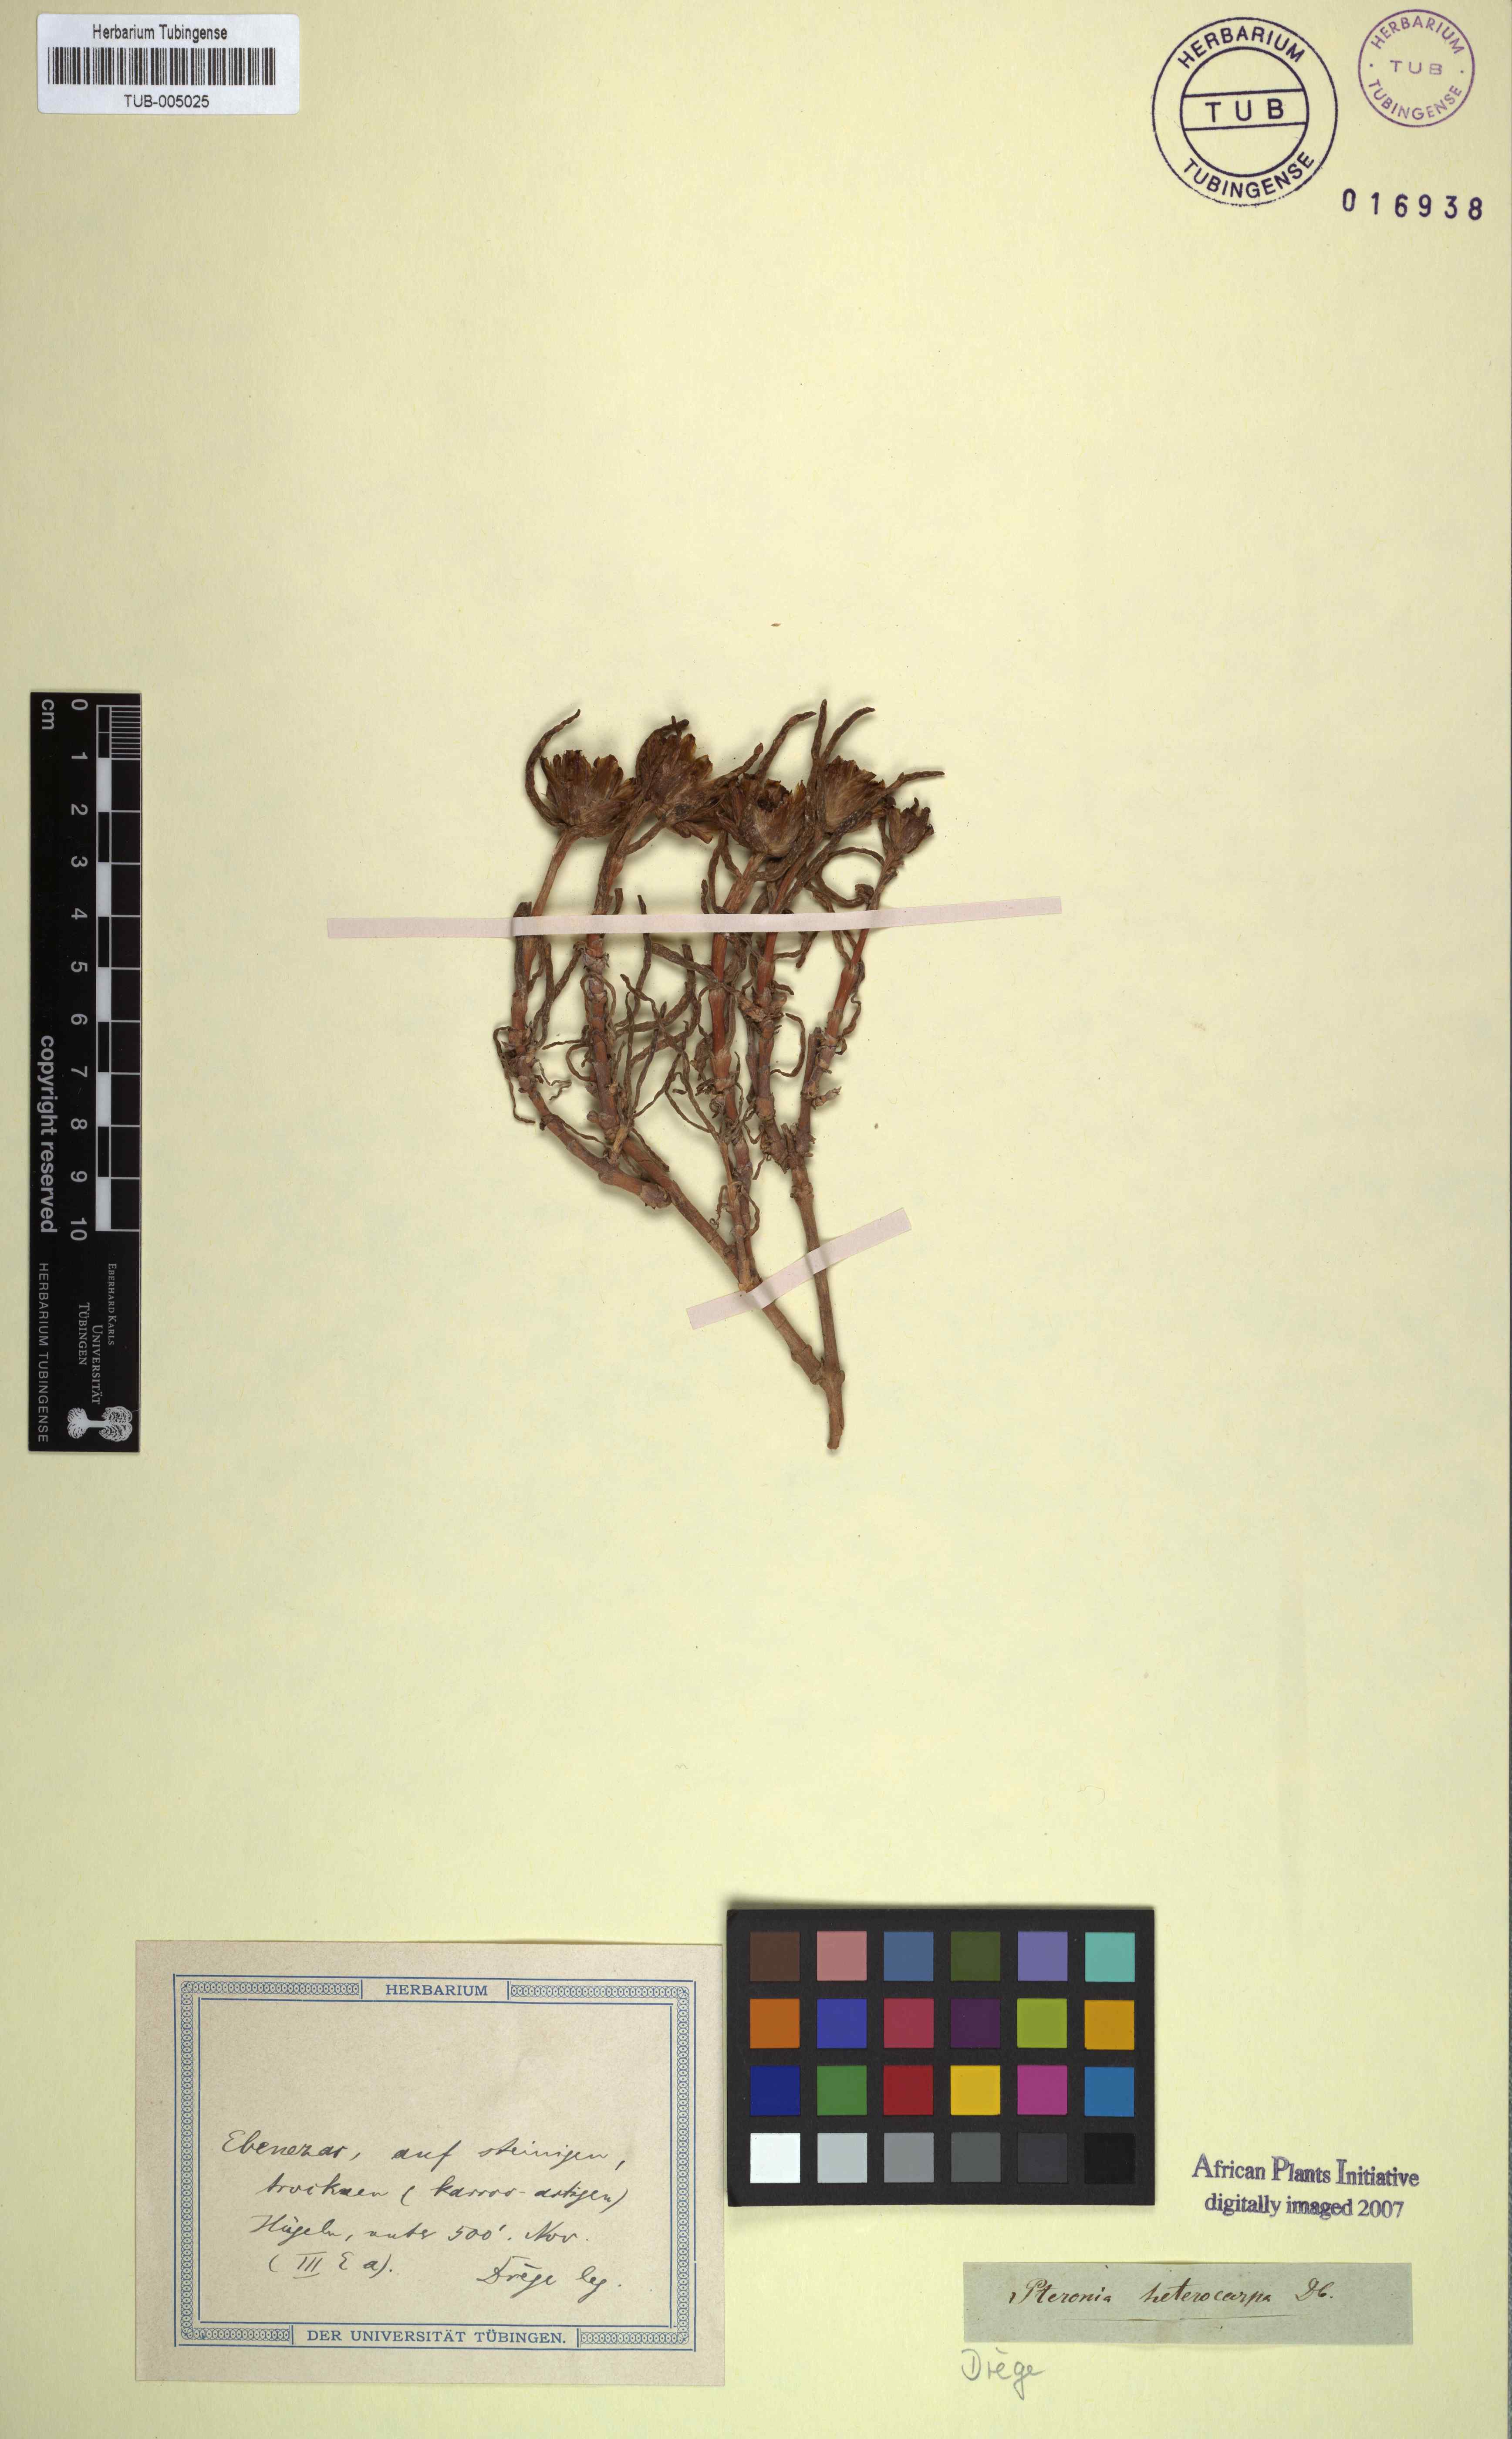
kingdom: Plantae
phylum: Tracheophyta
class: Magnoliopsida
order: Asterales
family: Asteraceae
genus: Pteronia
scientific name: Pteronia heterocarpa
